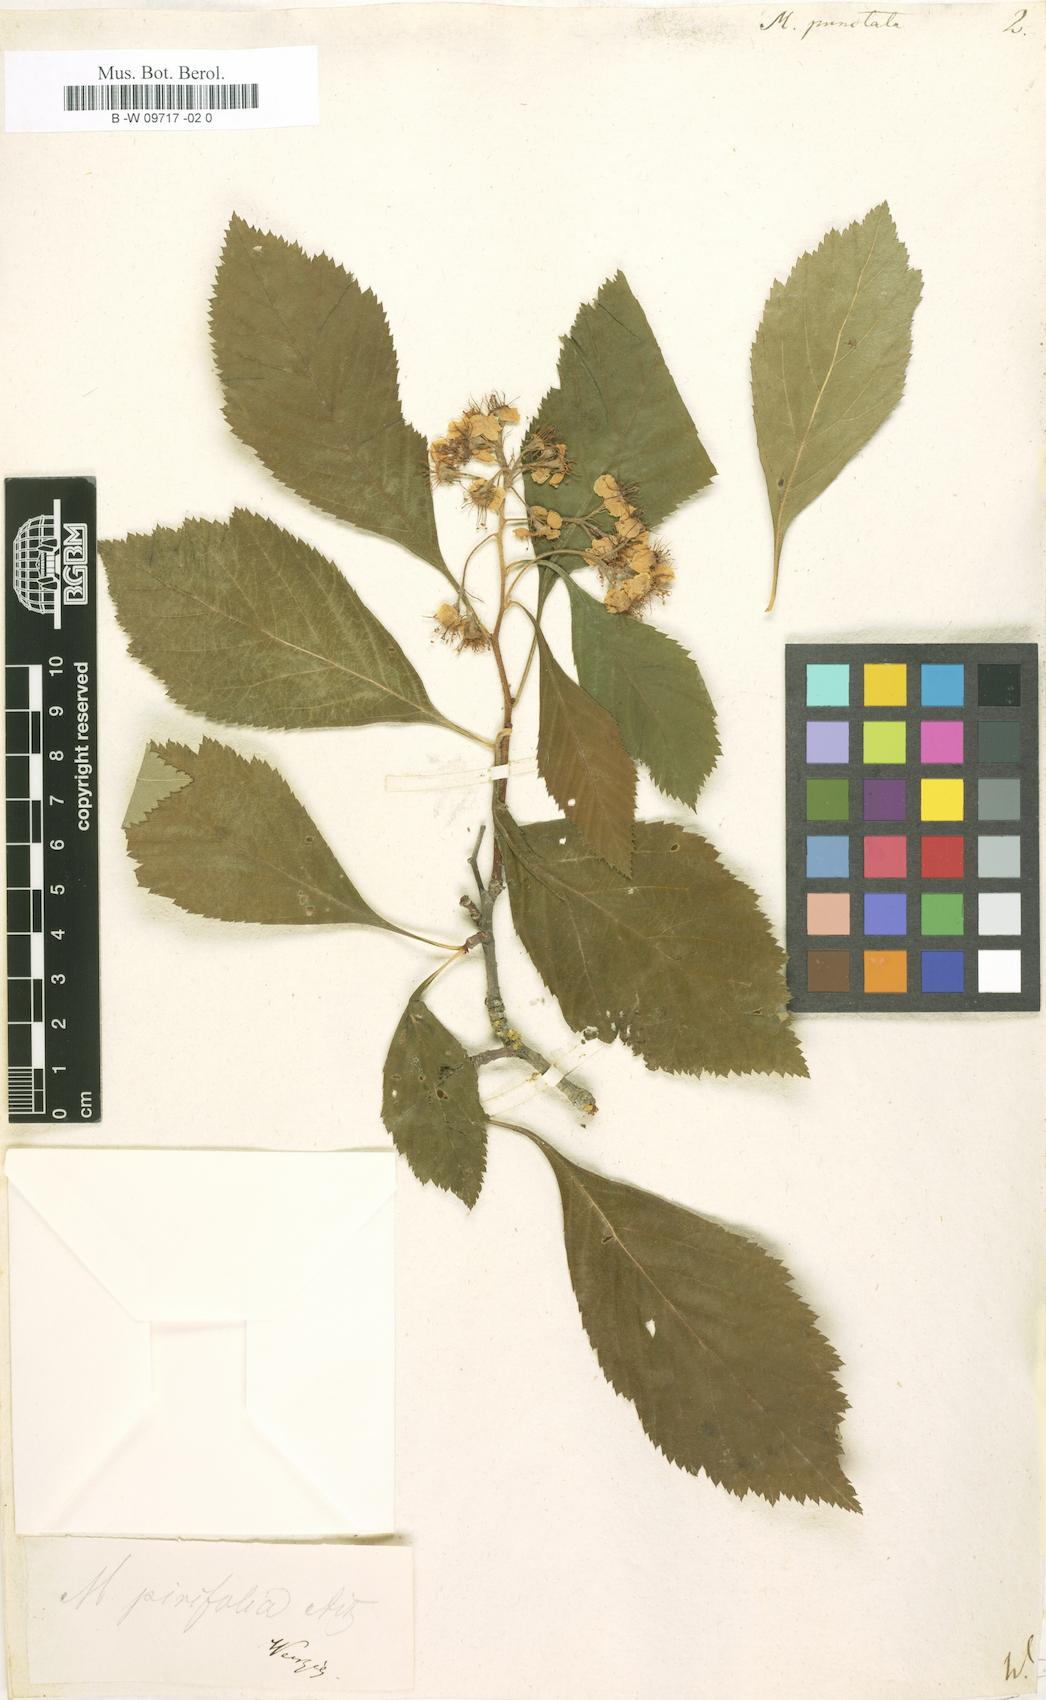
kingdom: Plantae
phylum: Tracheophyta
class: Magnoliopsida
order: Rosales
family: Rosaceae
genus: Crataegus
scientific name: Crataegus punctata
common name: Dotted hawthorn
